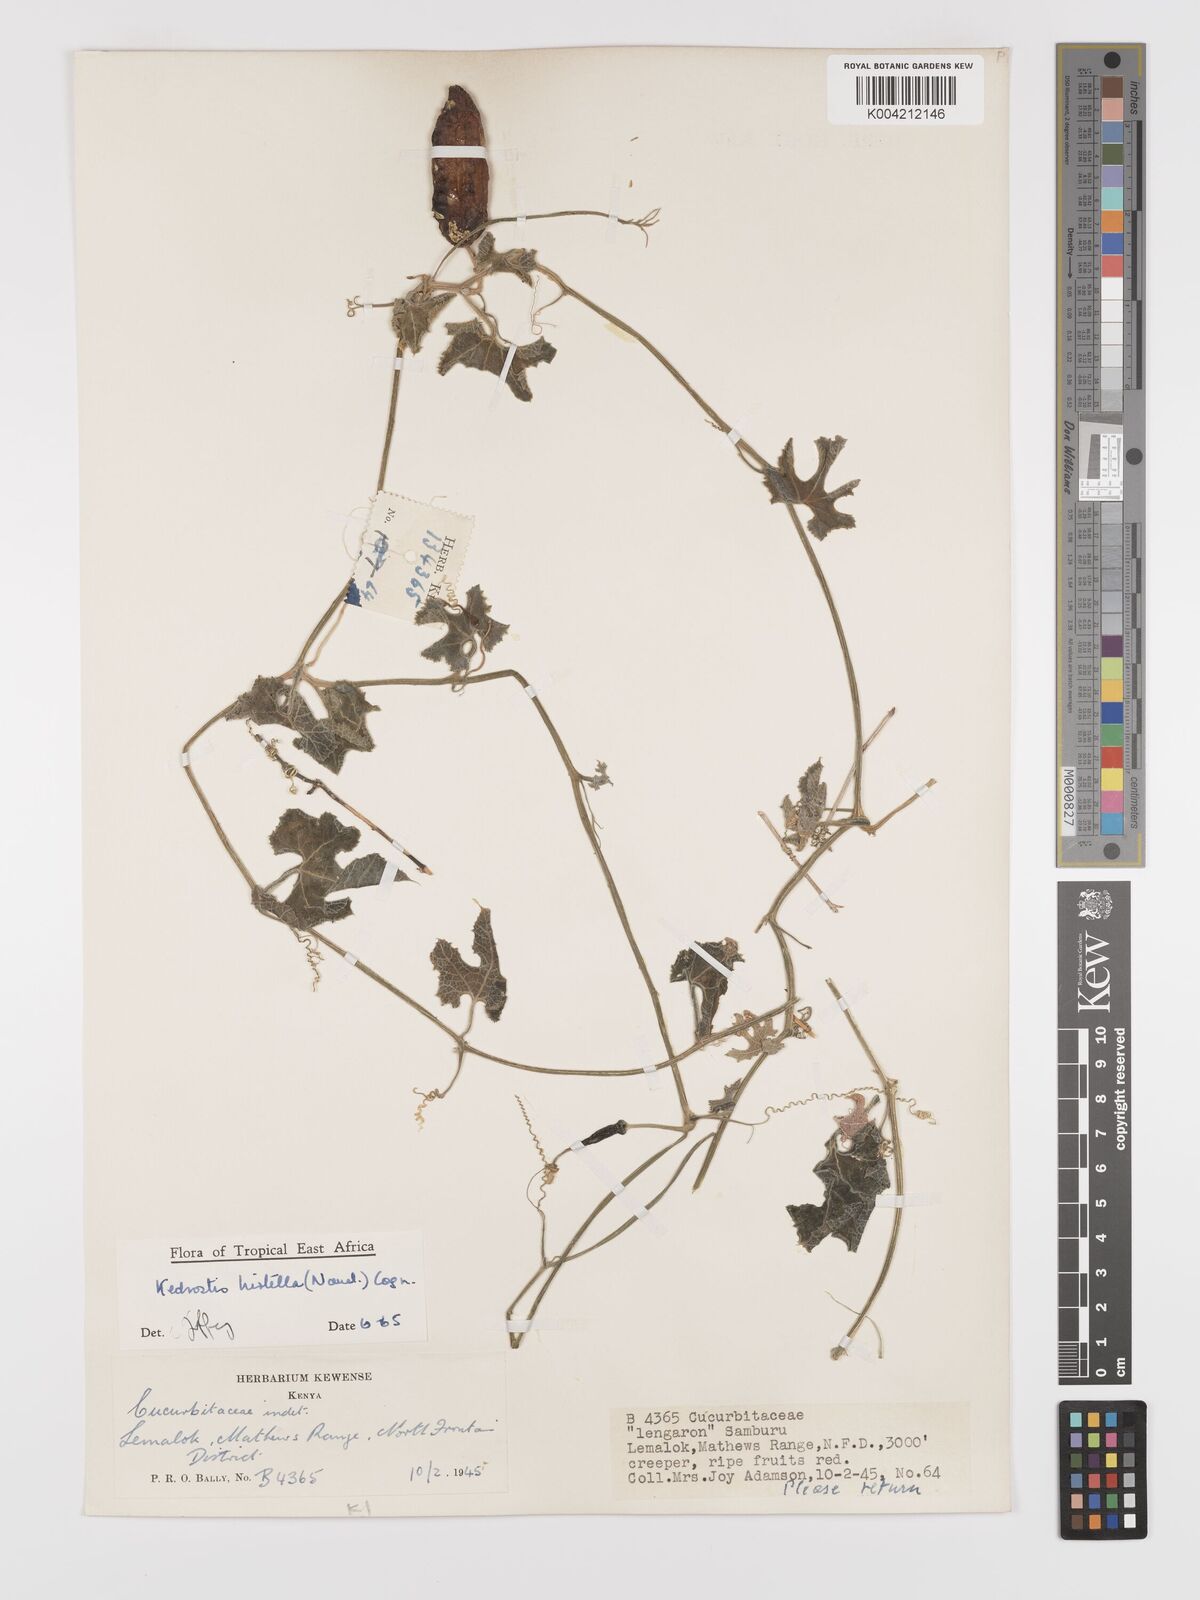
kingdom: Plantae
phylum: Tracheophyta
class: Magnoliopsida
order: Cucurbitales
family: Cucurbitaceae
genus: Kedrostis
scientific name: Kedrostis leloja
